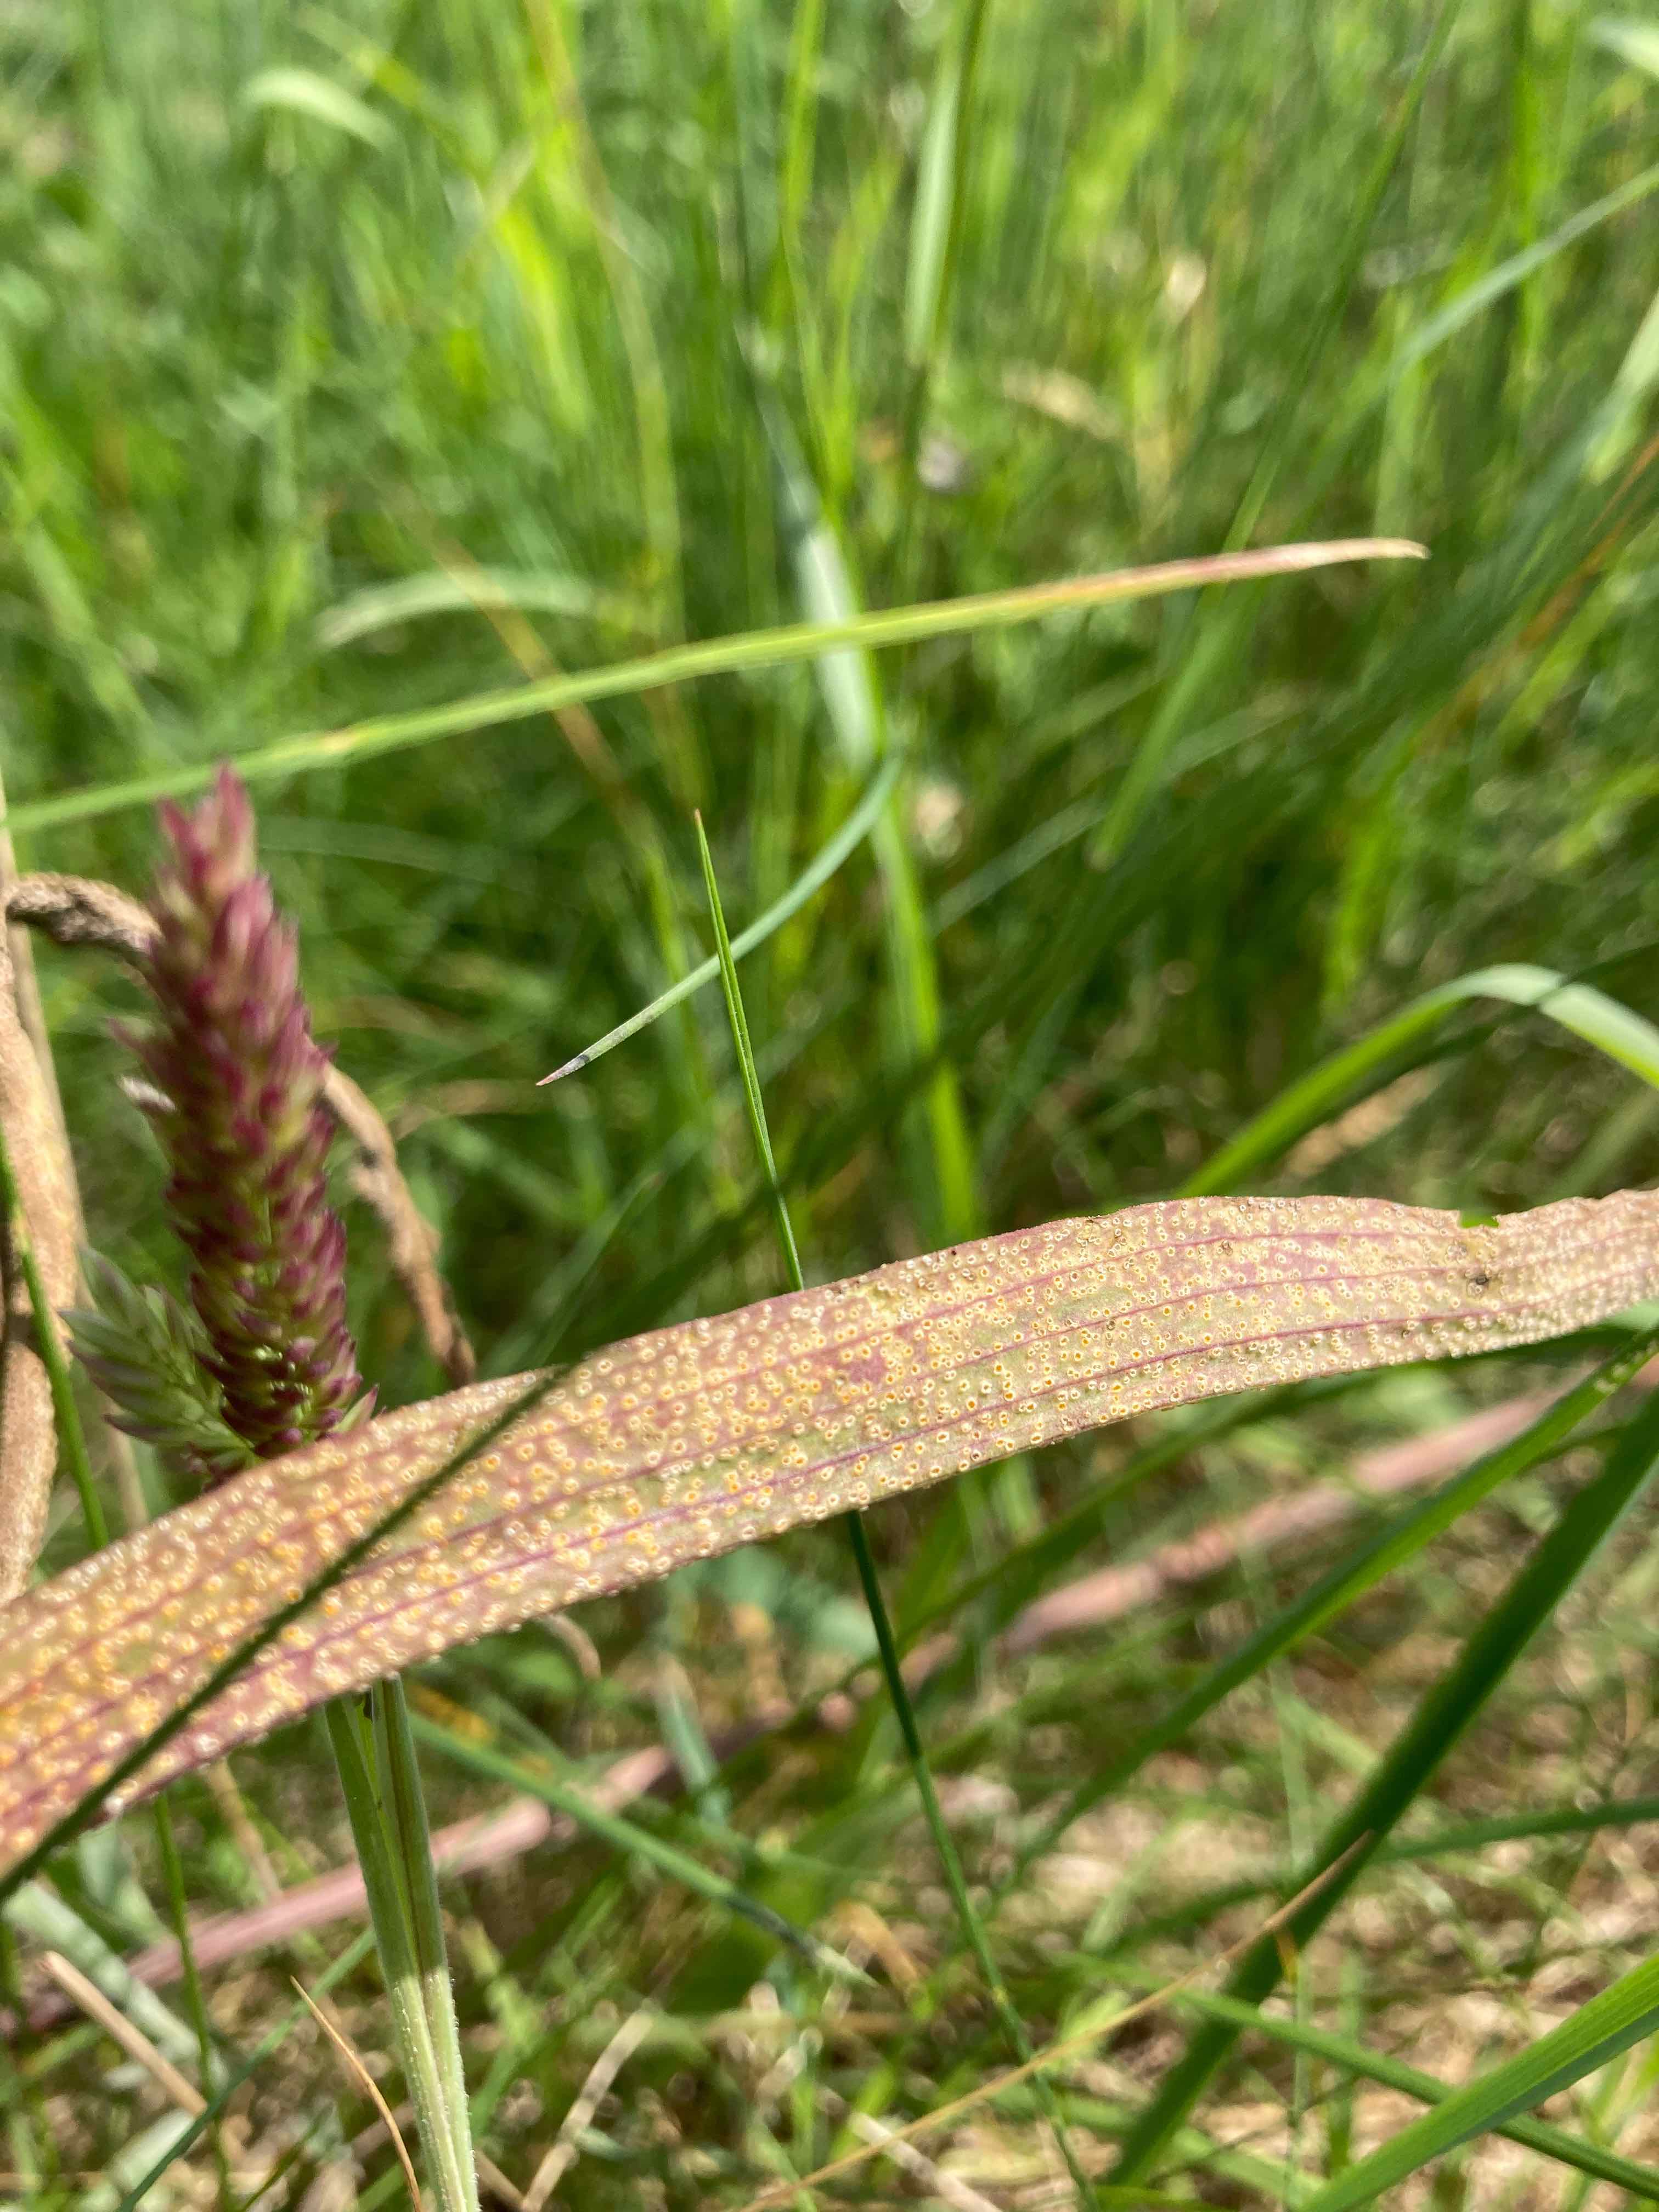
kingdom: Fungi
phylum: Basidiomycota
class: Pucciniomycetes
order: Pucciniales
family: Pucciniaceae
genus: Puccinia
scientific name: Puccinia hysterium
